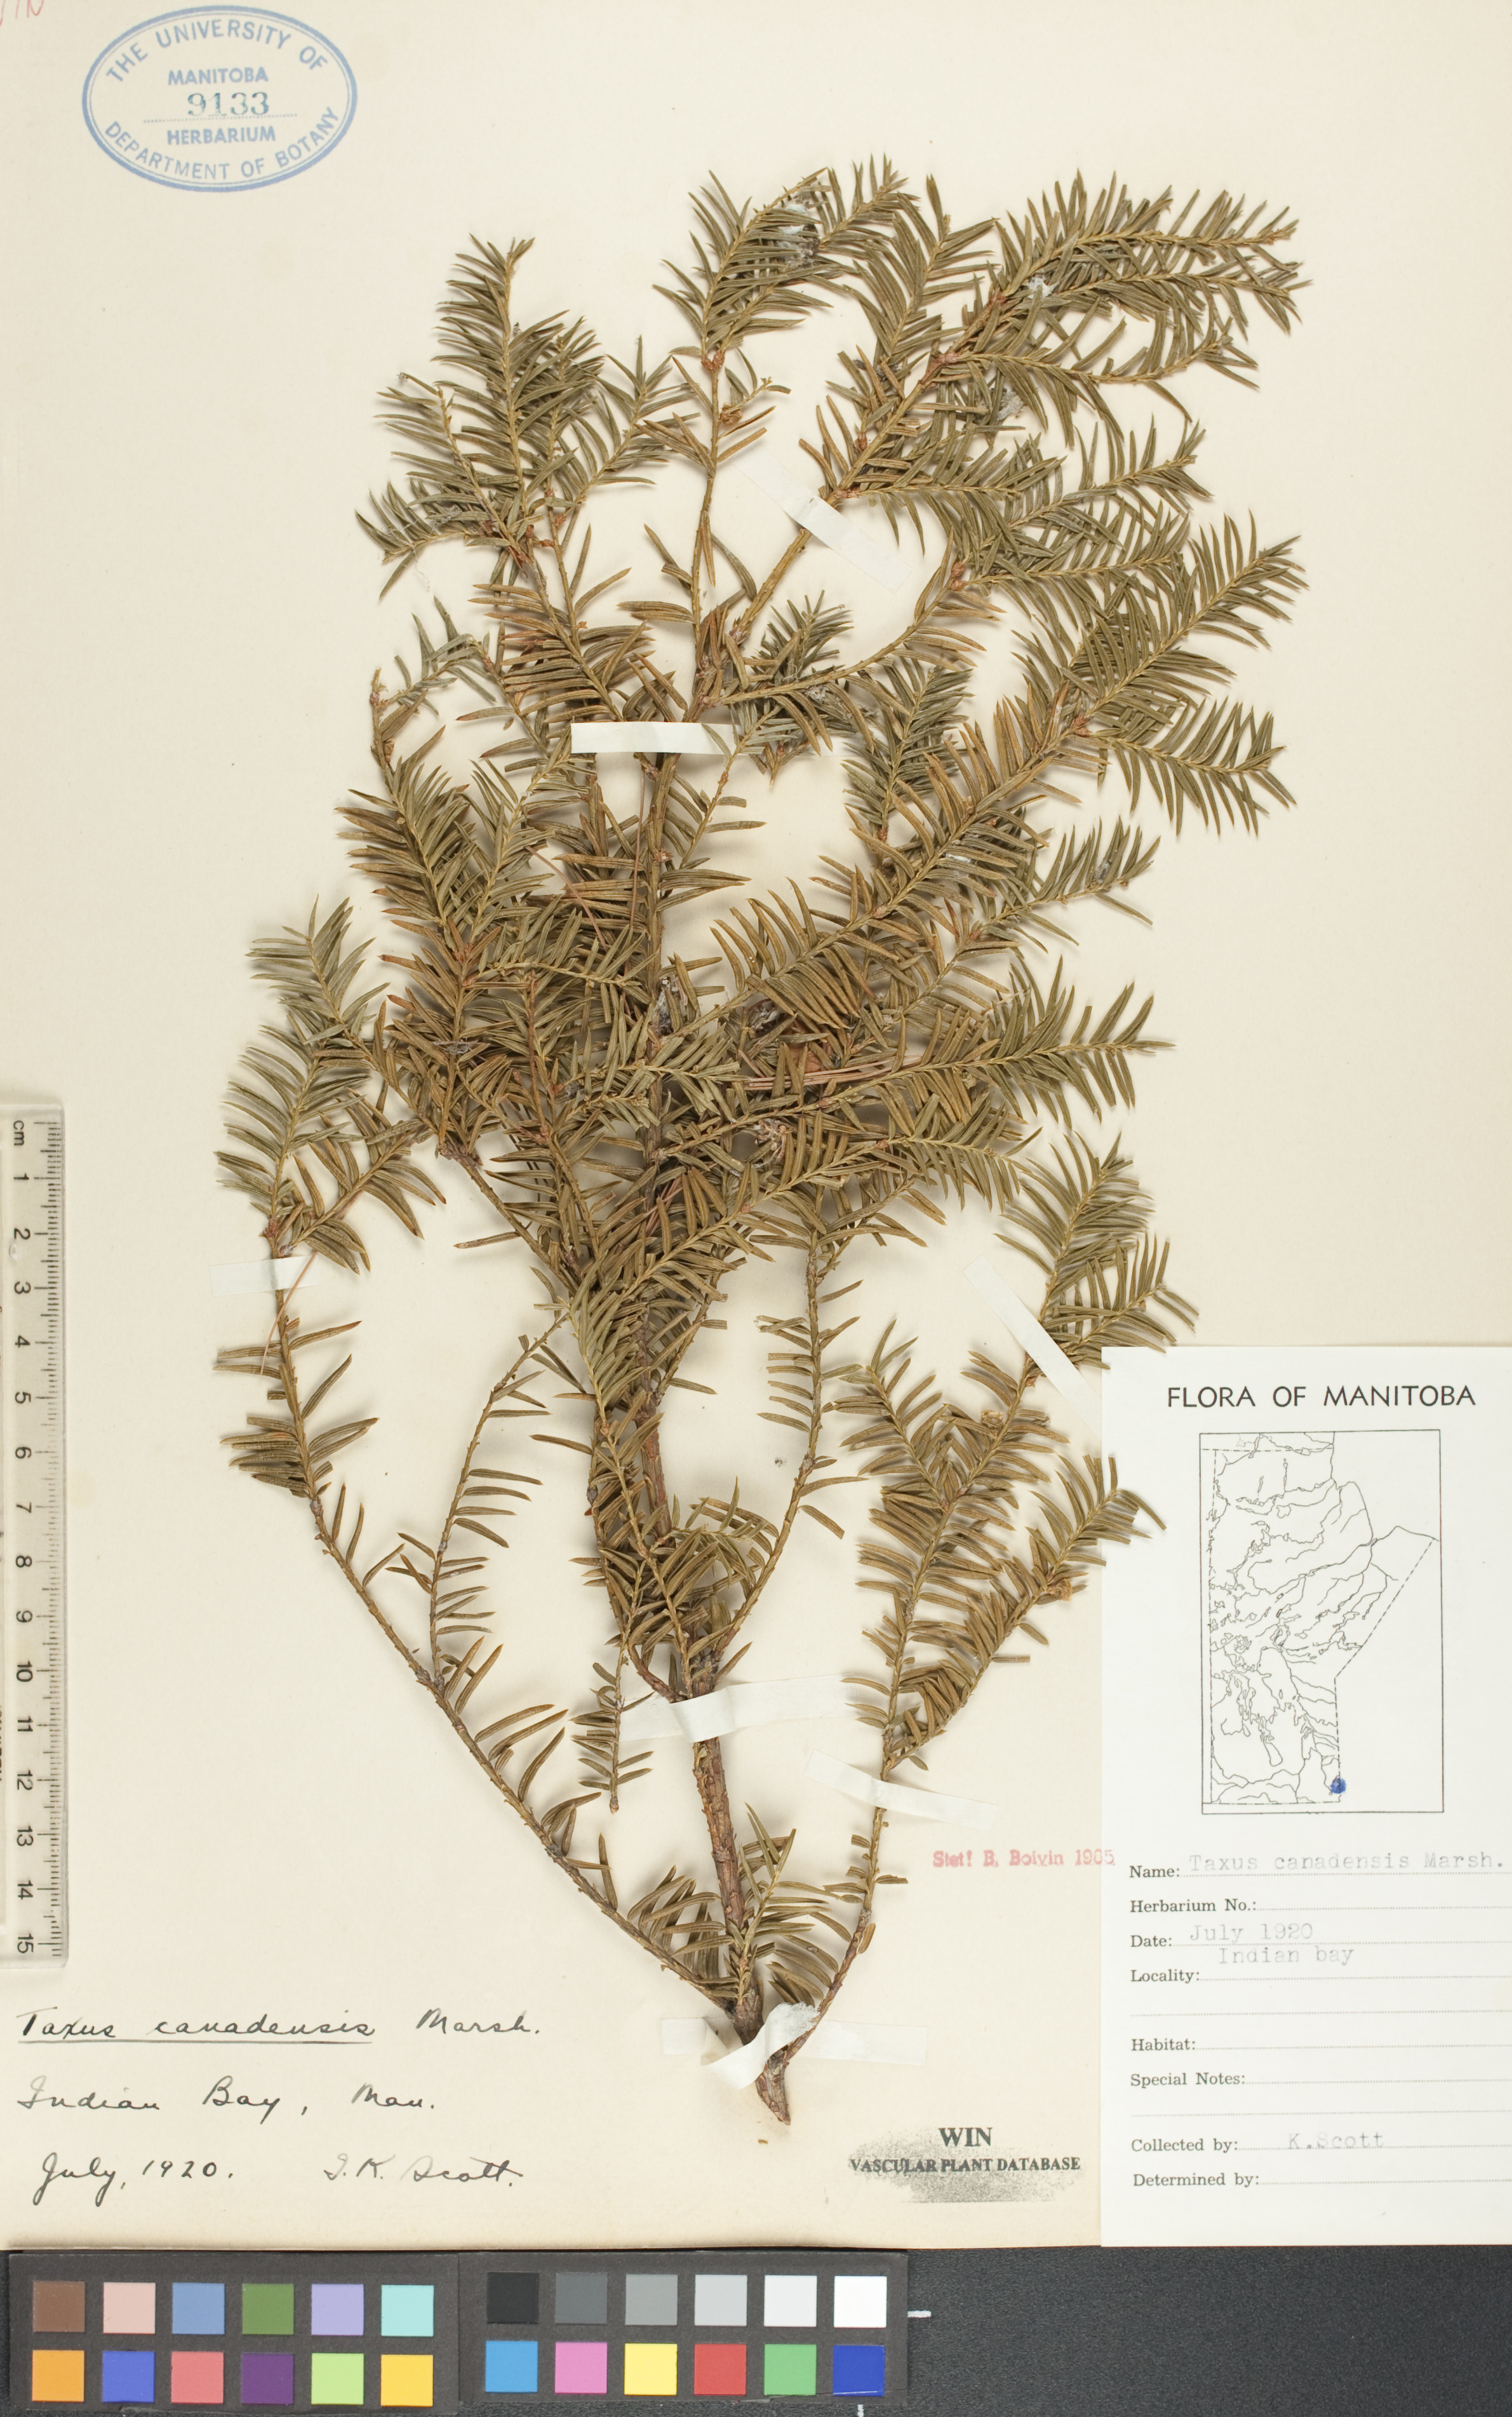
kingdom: Plantae
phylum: Tracheophyta
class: Pinopsida
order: Pinales
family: Taxaceae
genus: Taxus
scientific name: Taxus canadensis
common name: American yew
